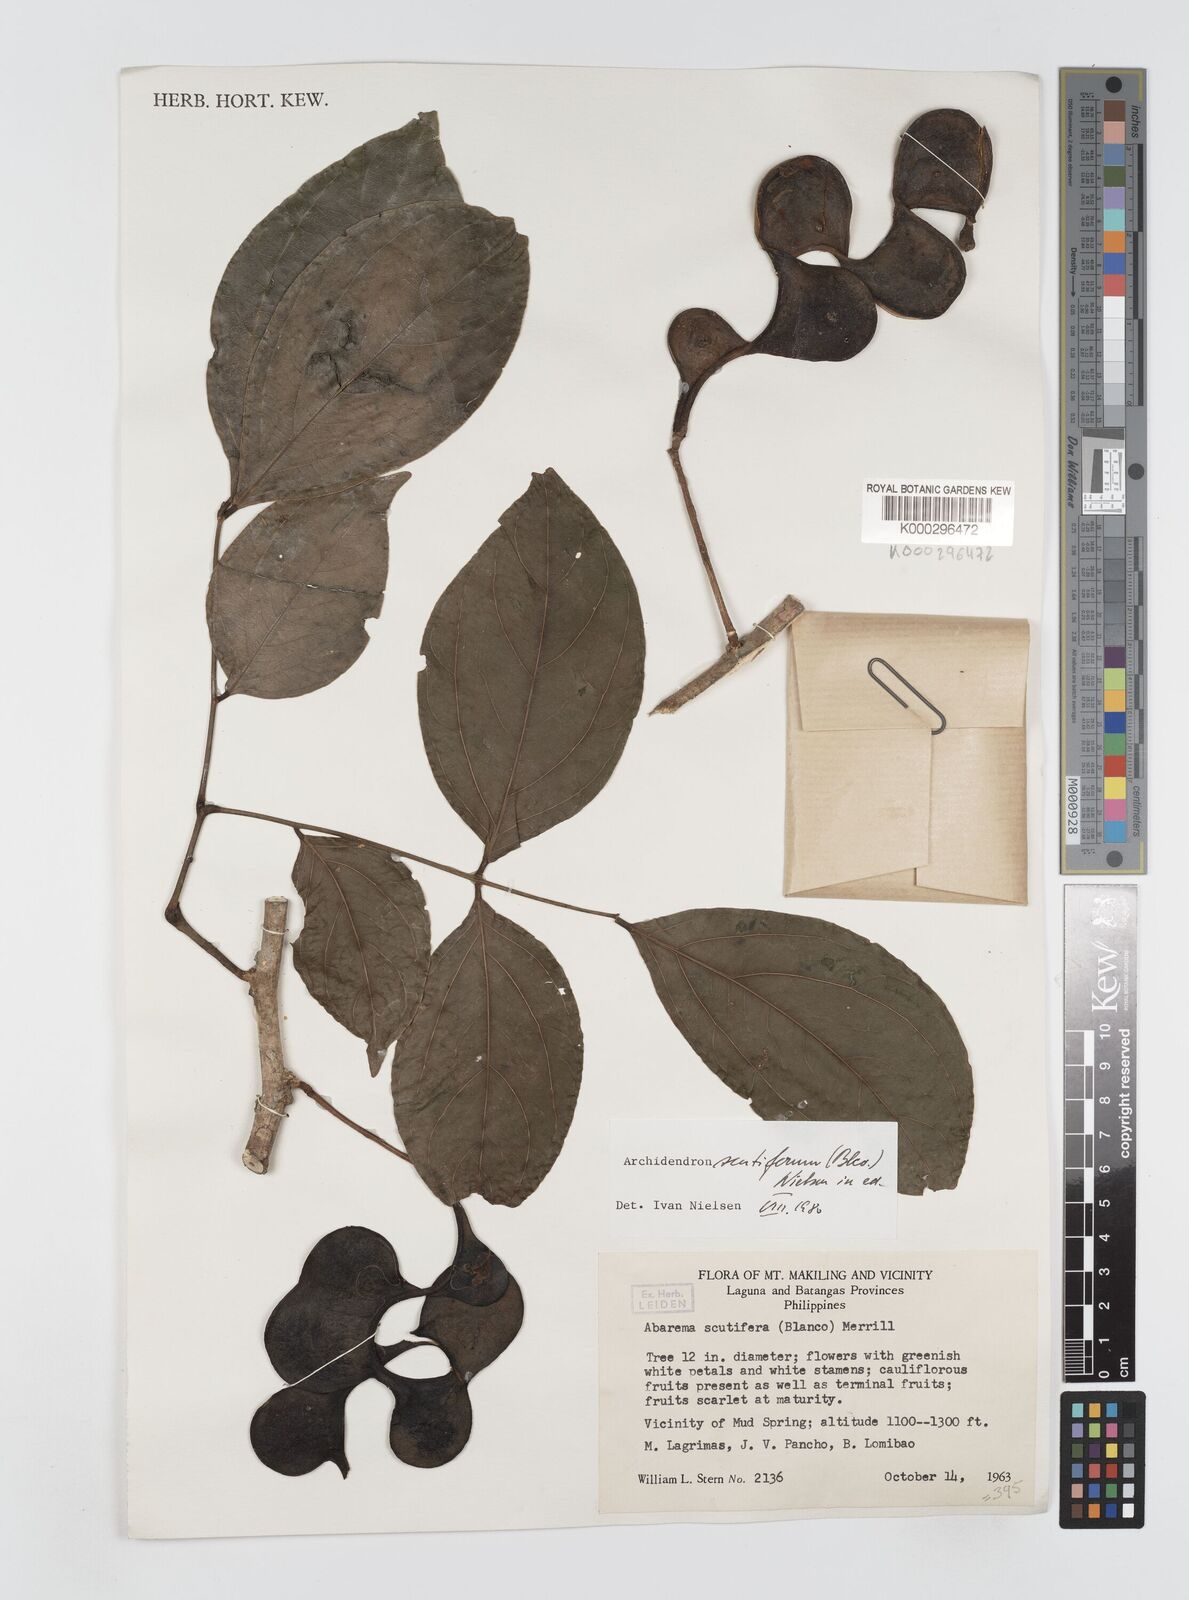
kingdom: Plantae
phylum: Tracheophyta
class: Magnoliopsida
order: Fabales
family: Fabaceae
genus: Archidendron
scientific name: Archidendron scutiferum
